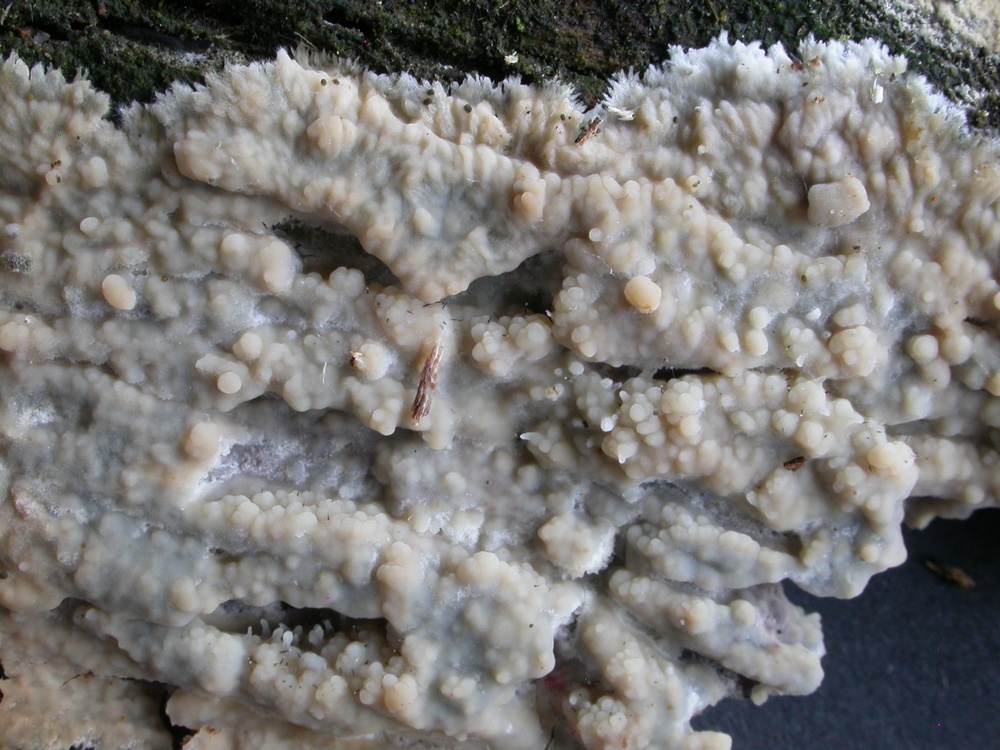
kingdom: Fungi
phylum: Basidiomycota
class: Agaricomycetes
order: Agaricales
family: Radulomycetaceae
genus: Radulomyces
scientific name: Radulomyces confluens
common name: glat naftalinskind
